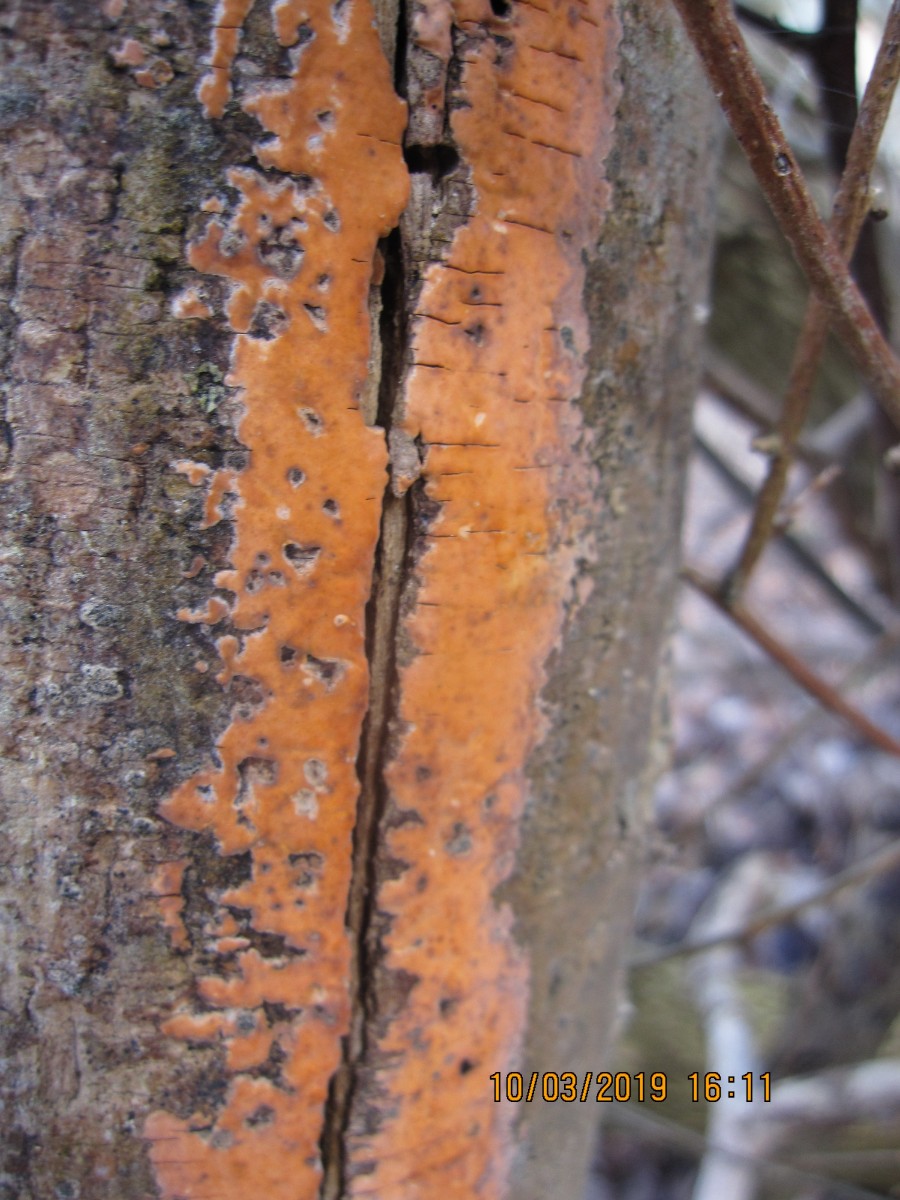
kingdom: Fungi
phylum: Basidiomycota
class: Agaricomycetes
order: Russulales
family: Peniophoraceae
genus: Peniophora
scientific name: Peniophora incarnata
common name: laksefarvet voksskind
